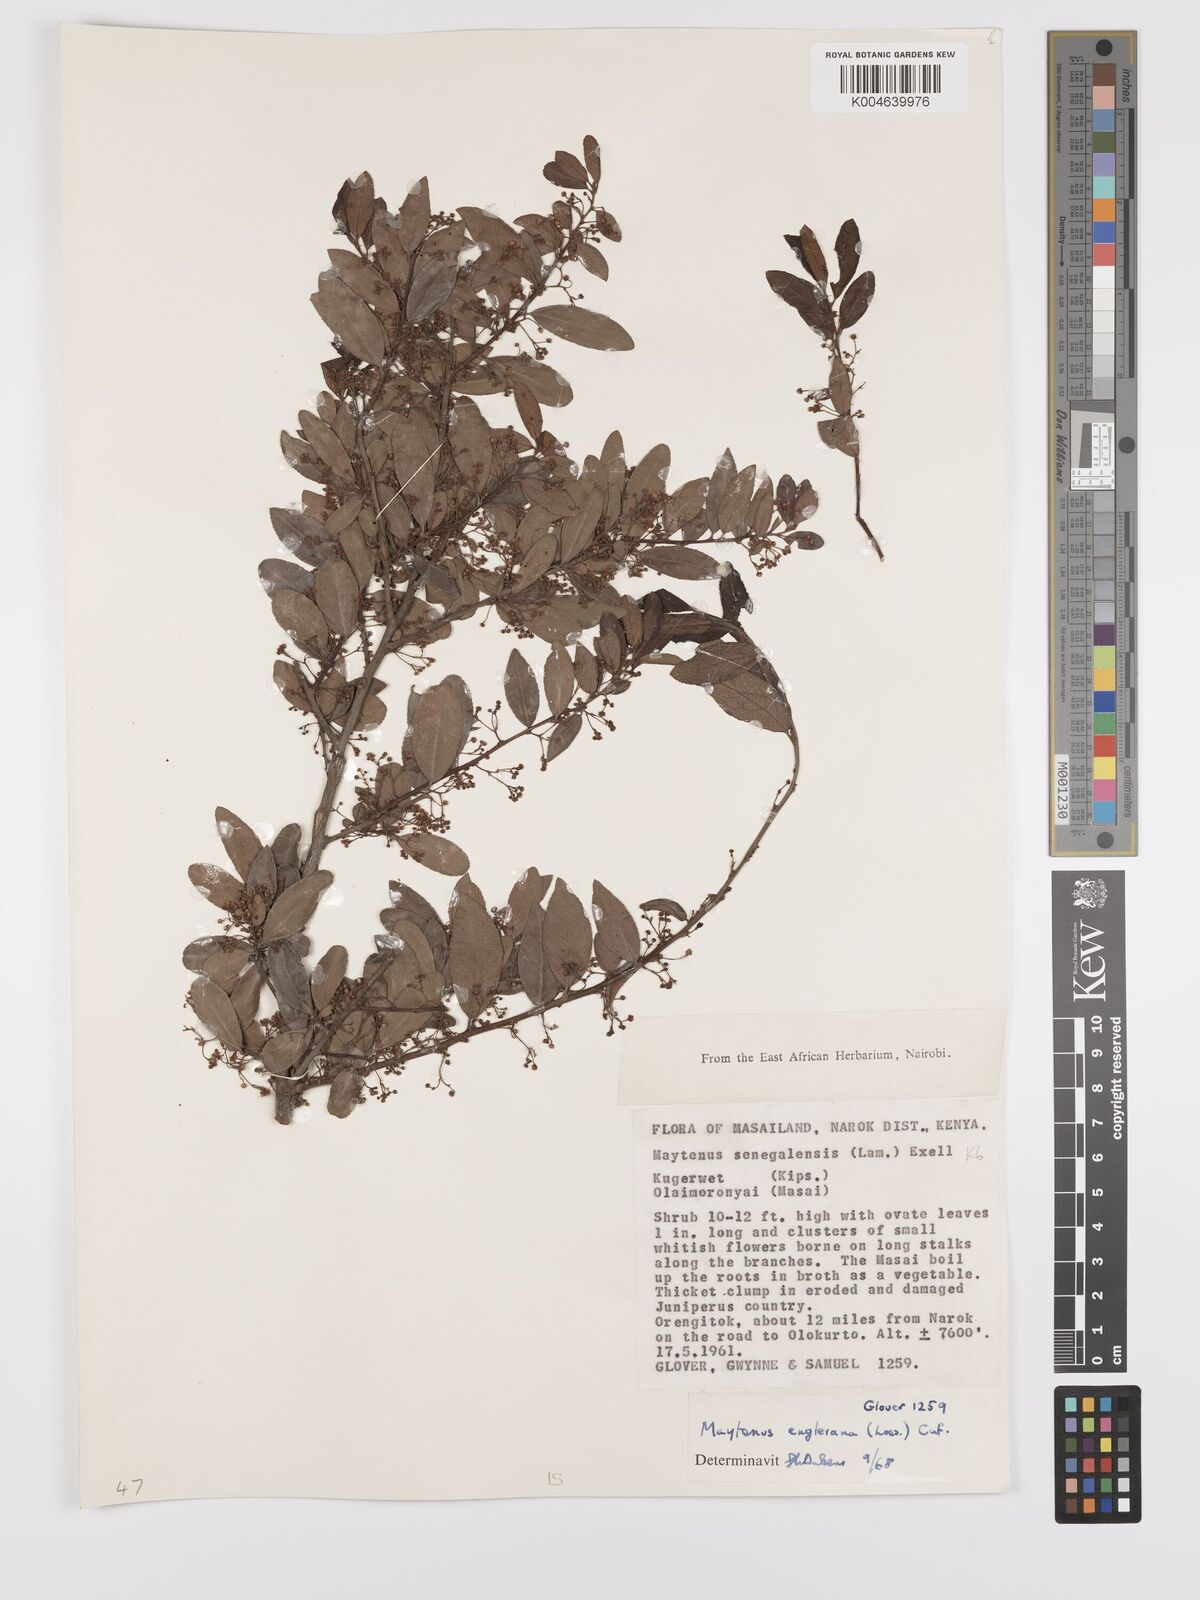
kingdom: Plantae
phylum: Tracheophyta
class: Magnoliopsida
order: Celastrales
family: Celastraceae
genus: Gymnosporia
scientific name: Gymnosporia arbutifolia
